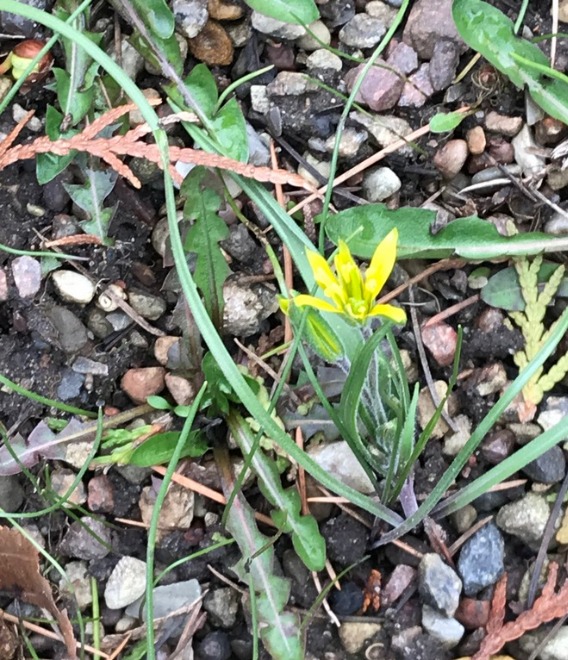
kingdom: Plantae
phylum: Tracheophyta
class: Liliopsida
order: Liliales
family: Liliaceae
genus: Gagea
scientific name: Gagea villosa
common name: Ager-guldstjerne
